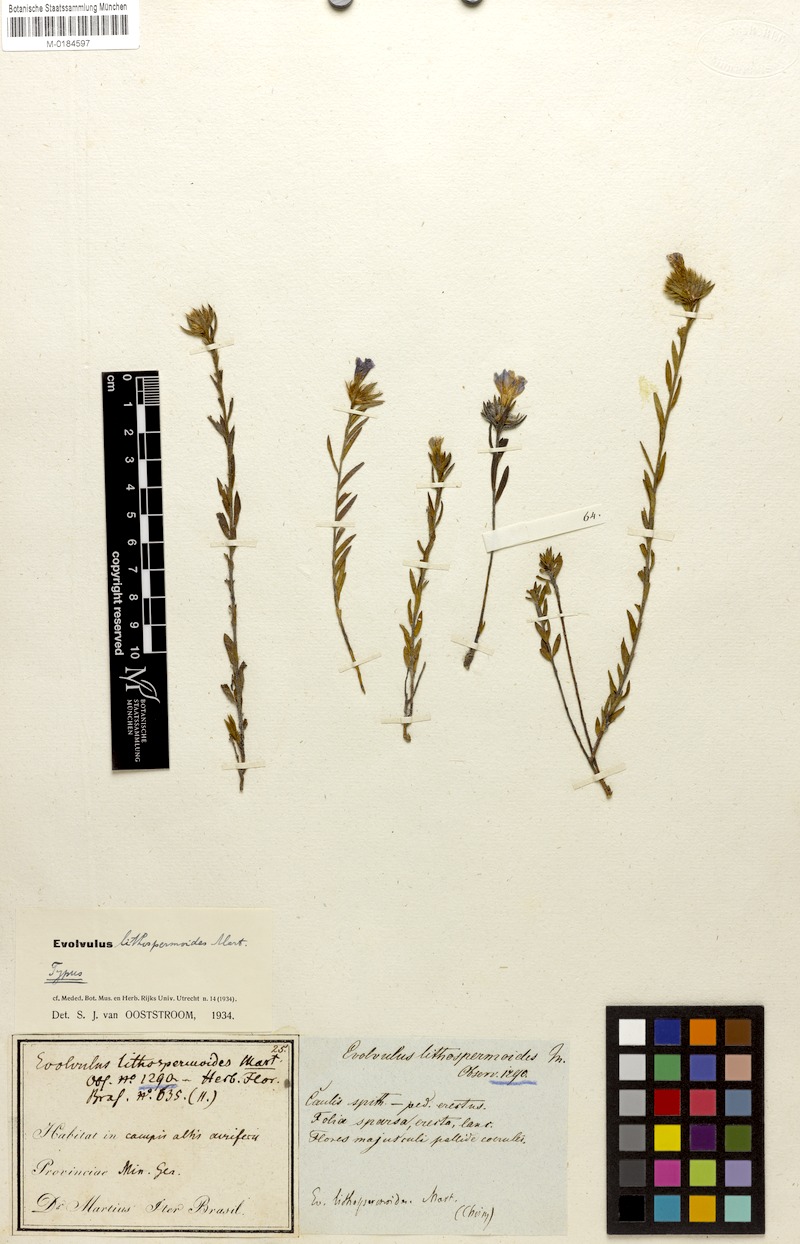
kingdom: Plantae
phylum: Tracheophyta
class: Magnoliopsida
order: Solanales
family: Convolvulaceae
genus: Evolvulus
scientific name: Evolvulus lithospermoides
